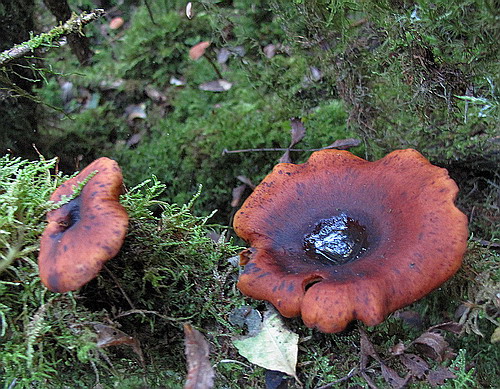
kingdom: Fungi
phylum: Basidiomycota
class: Agaricomycetes
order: Polyporales
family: Polyporaceae
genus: Picipes
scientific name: Picipes tubaeformis
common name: trompet-stilkporesvamp
